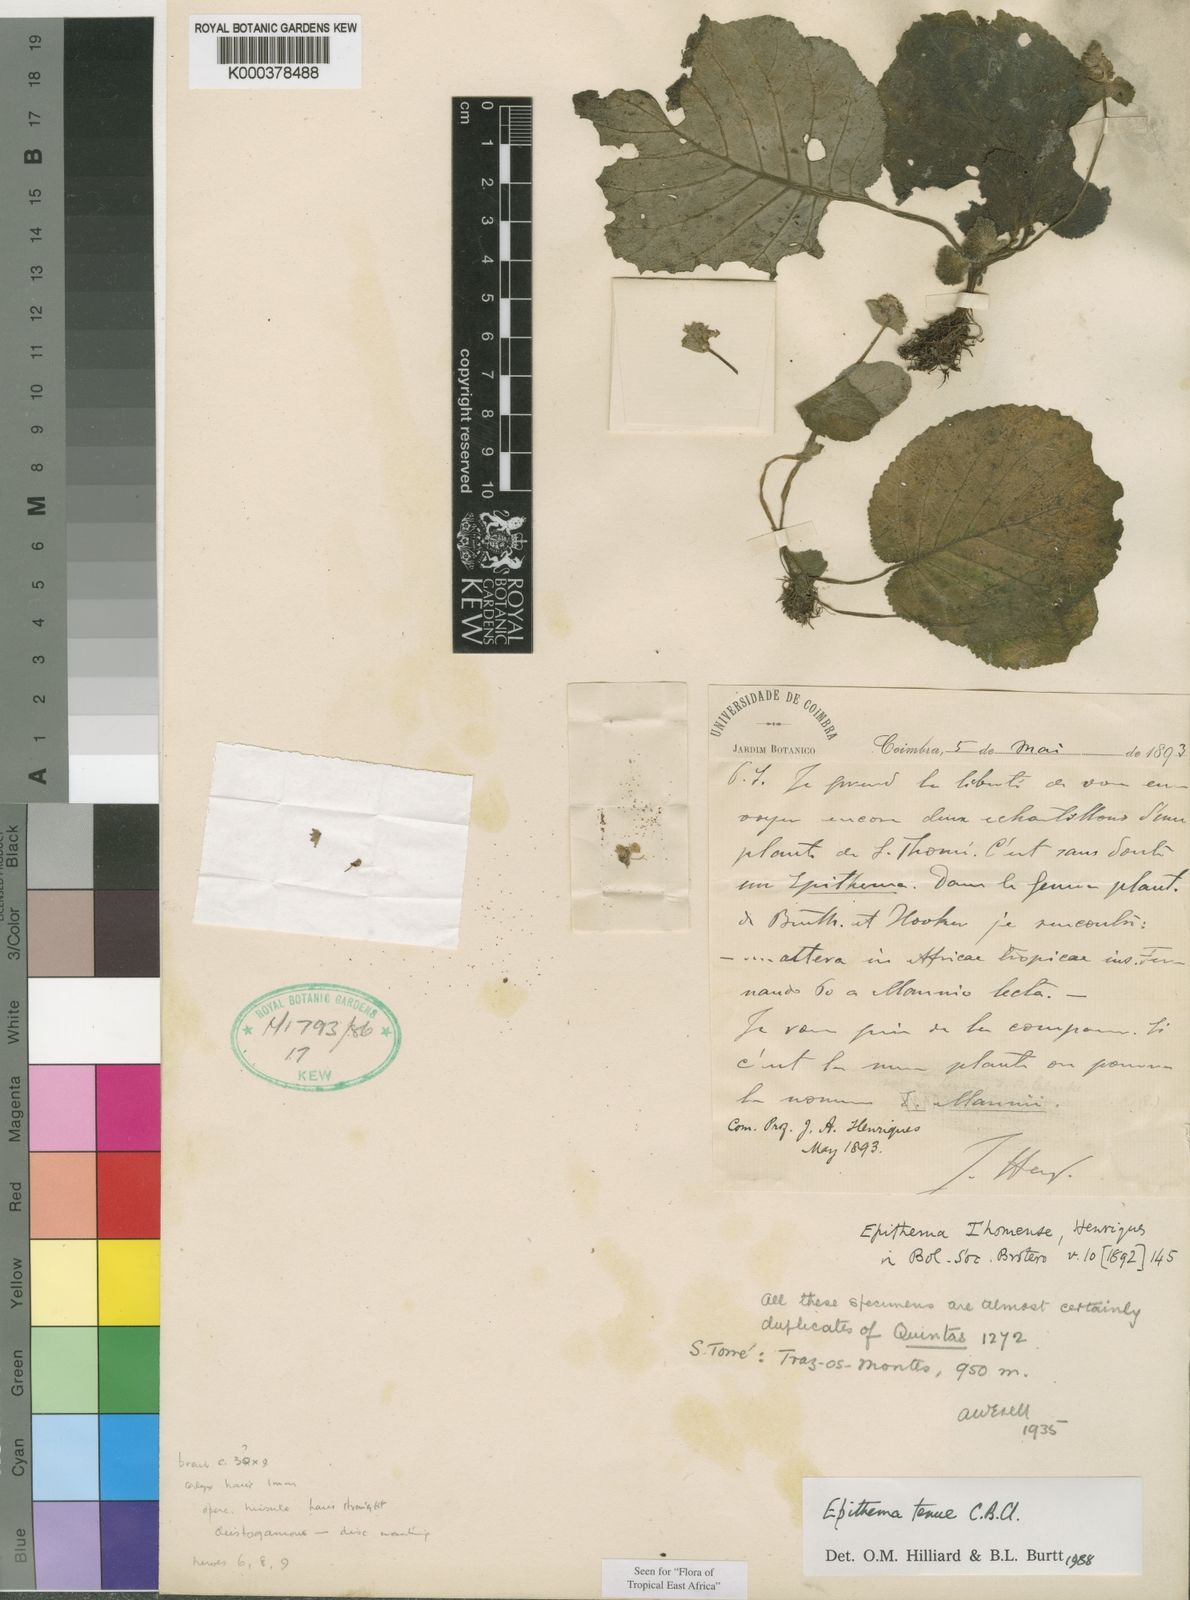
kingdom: Plantae
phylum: Tracheophyta
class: Magnoliopsida
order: Lamiales
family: Gesneriaceae
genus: Epithema
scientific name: Epithema tenue
